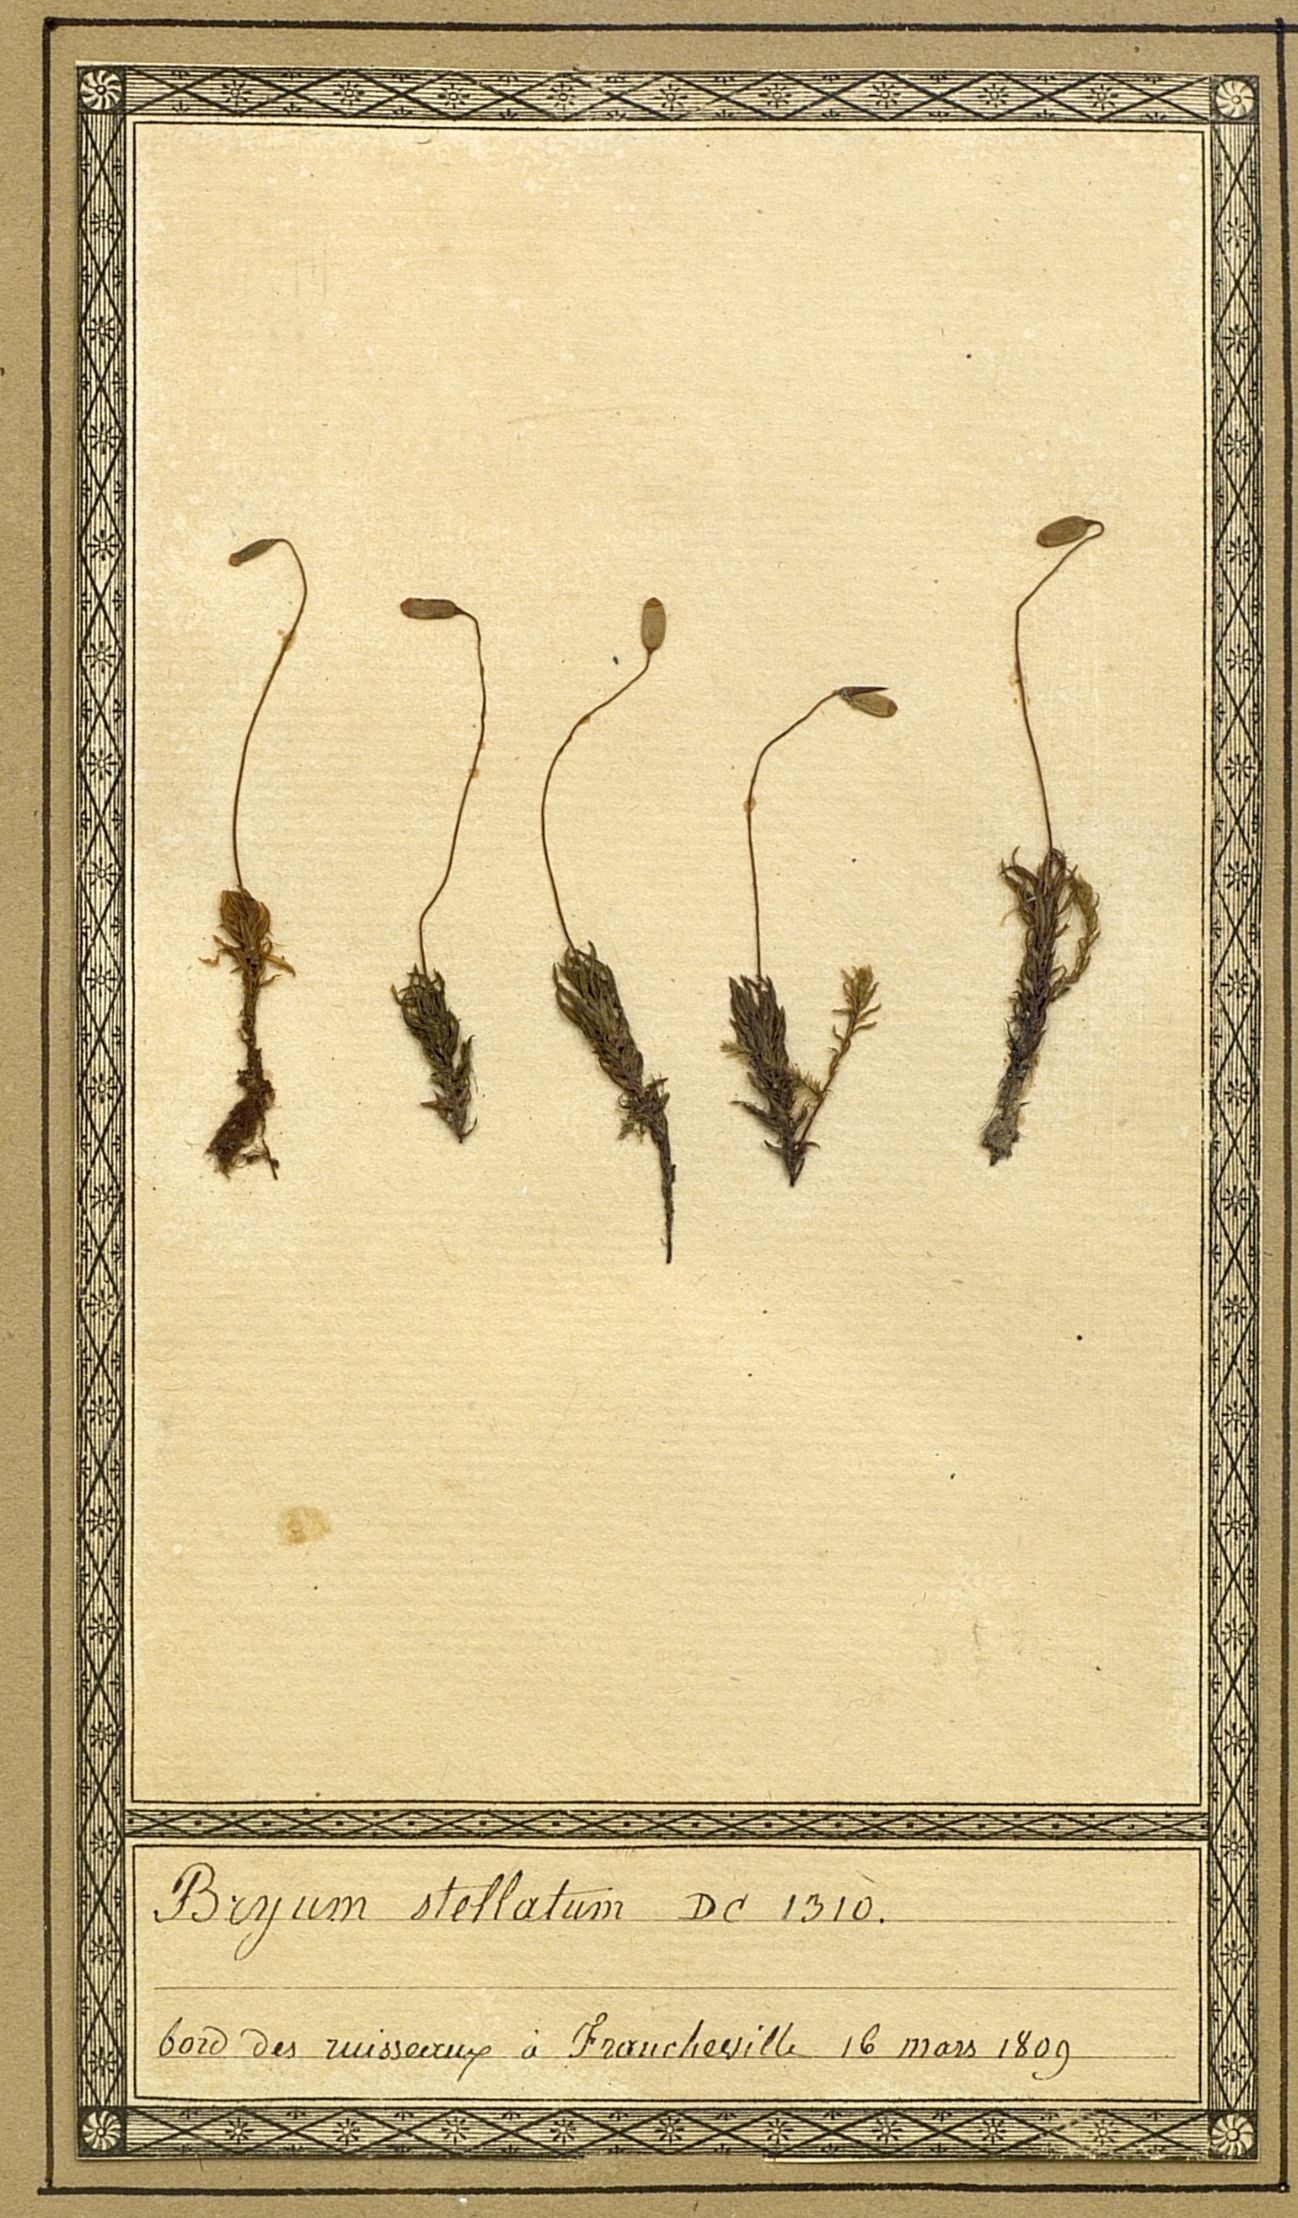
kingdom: Plantae
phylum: Bryophyta
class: Bryopsida
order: Bryales
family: Bryaceae
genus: Bryum
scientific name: Bryum stellatum
